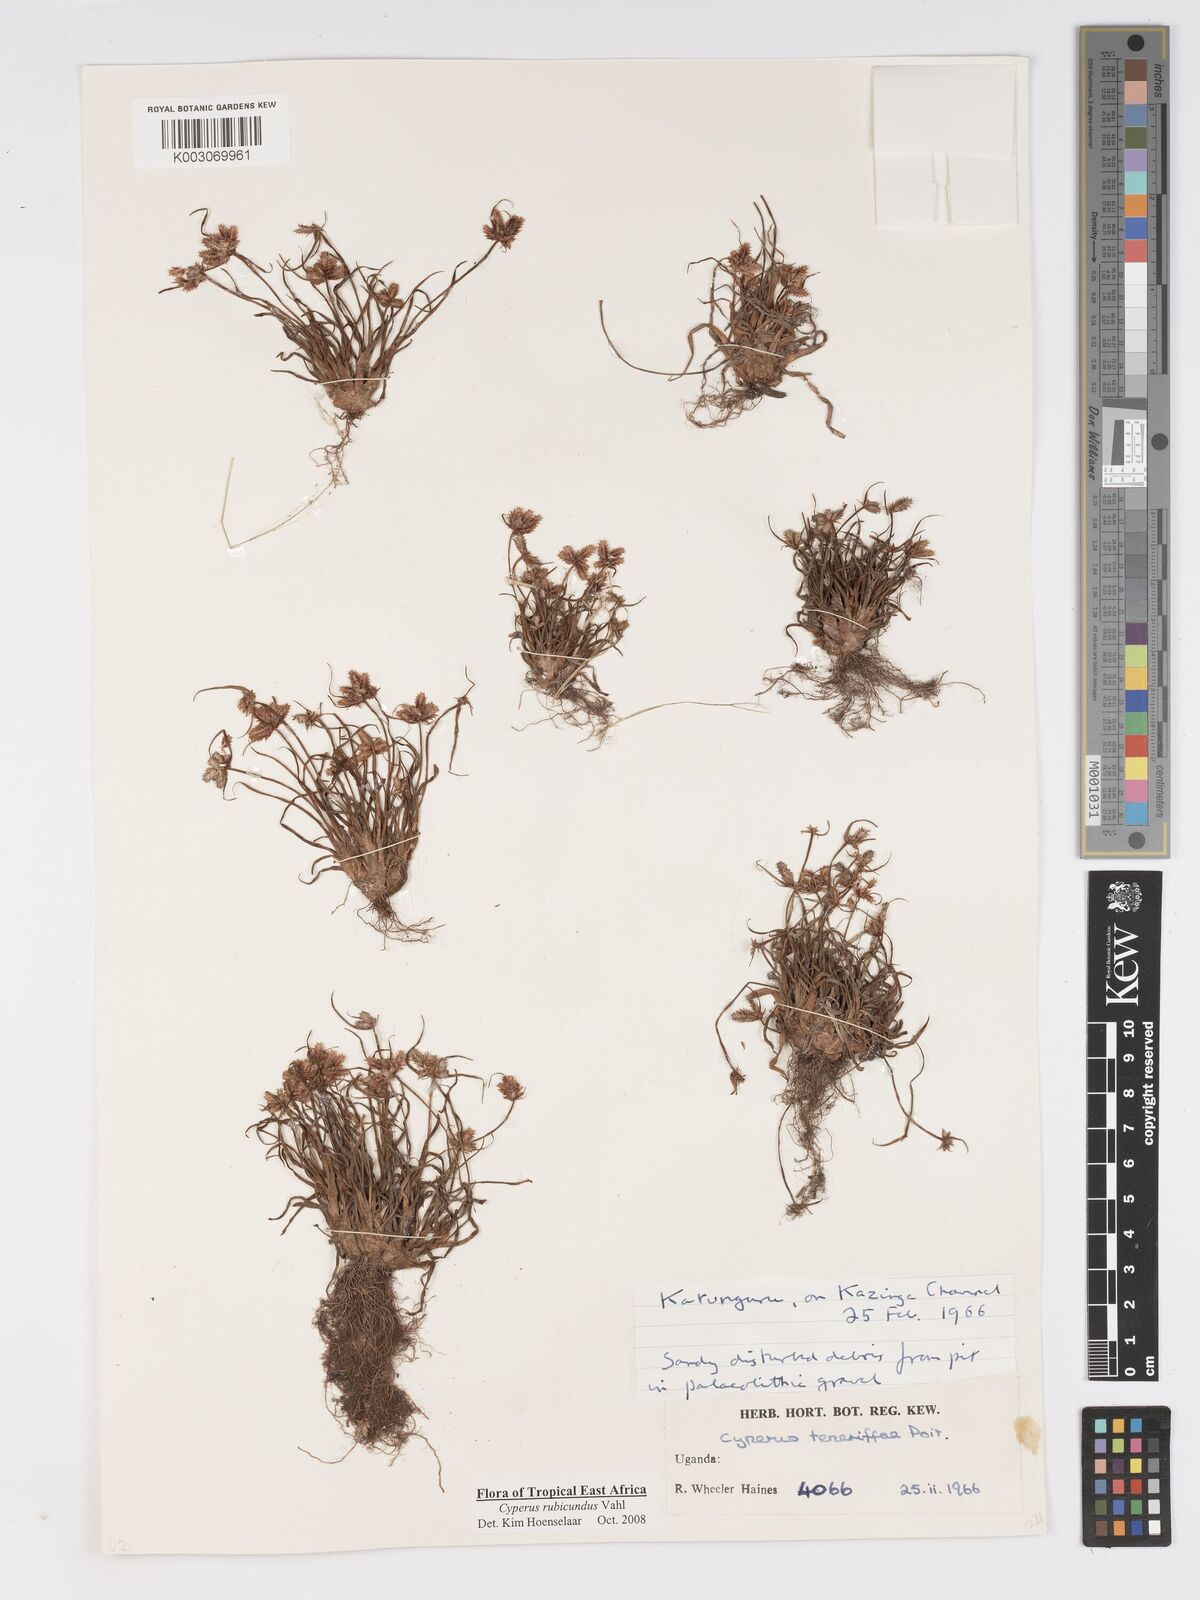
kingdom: Plantae
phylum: Tracheophyta
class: Liliopsida
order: Poales
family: Cyperaceae
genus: Cyperus
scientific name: Cyperus rubicundus
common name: Coco-grass
